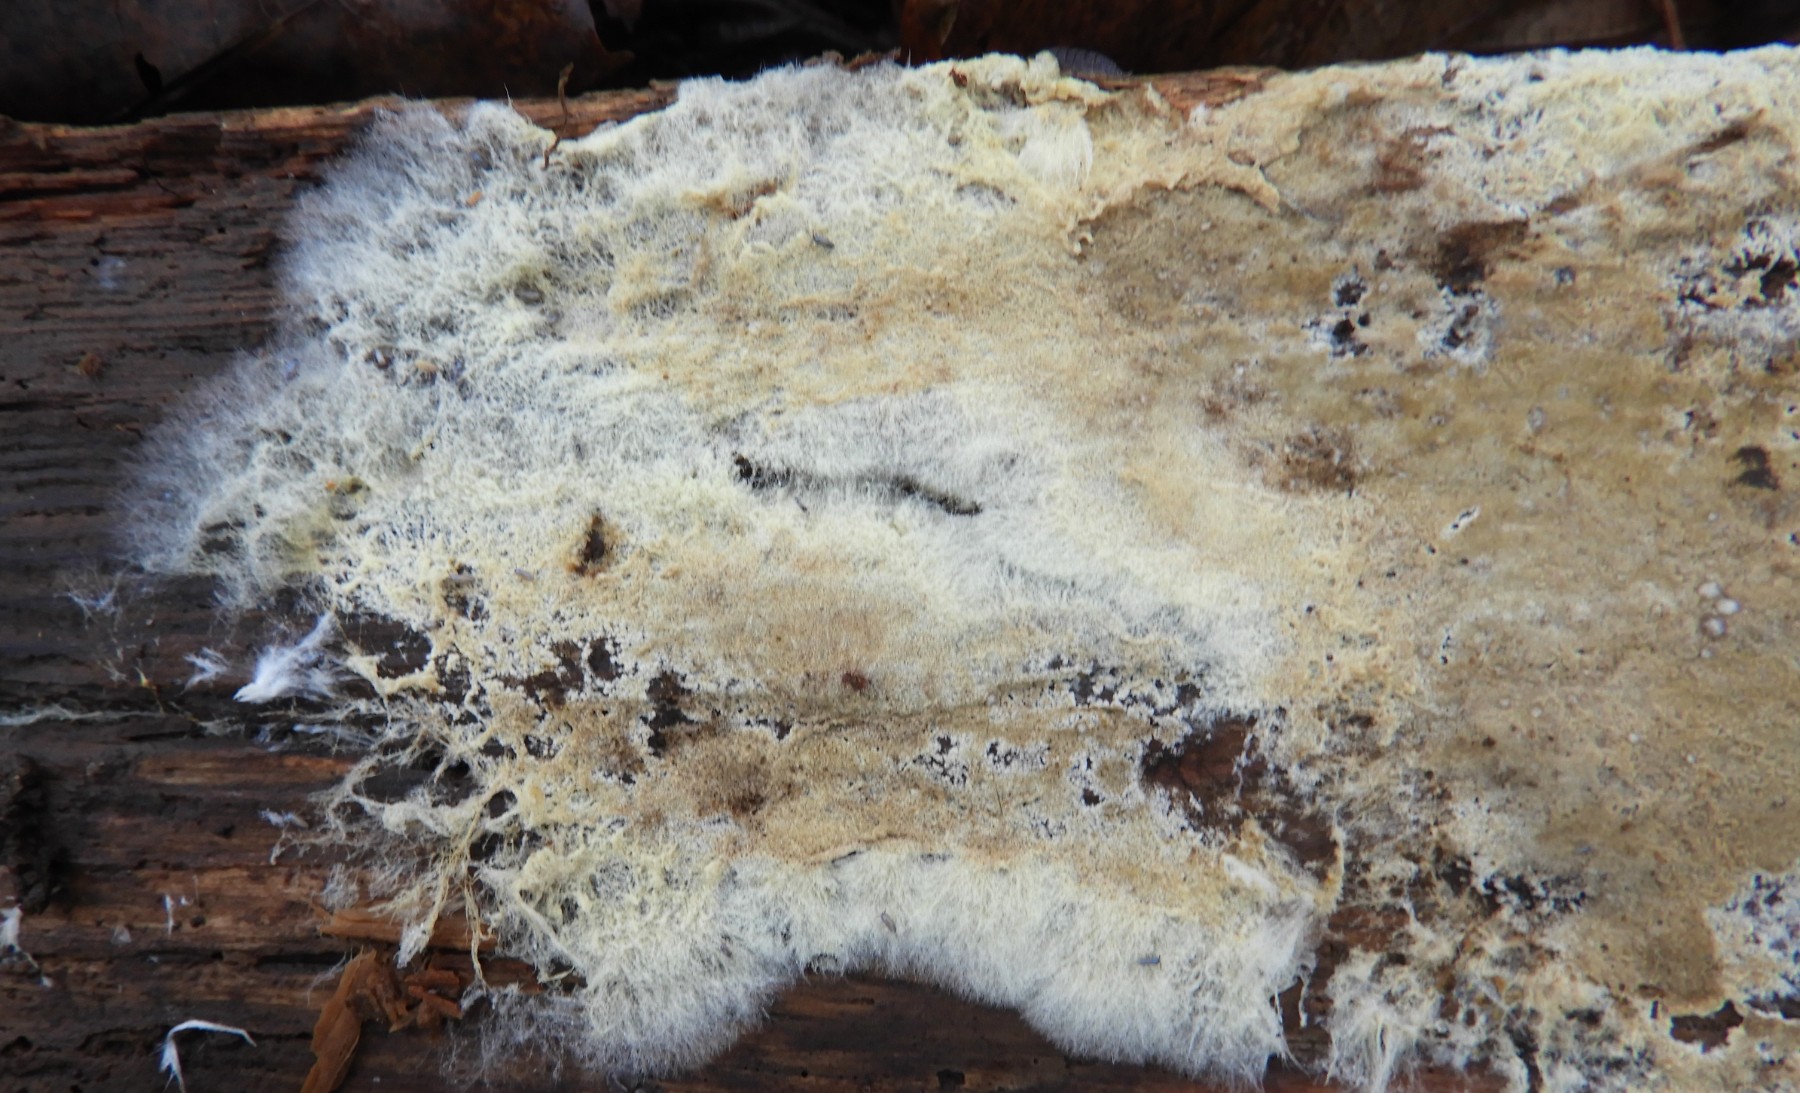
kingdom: Fungi
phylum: Basidiomycota
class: Agaricomycetes
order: Boletales
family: Coniophoraceae
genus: Coniophora
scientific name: Coniophora
